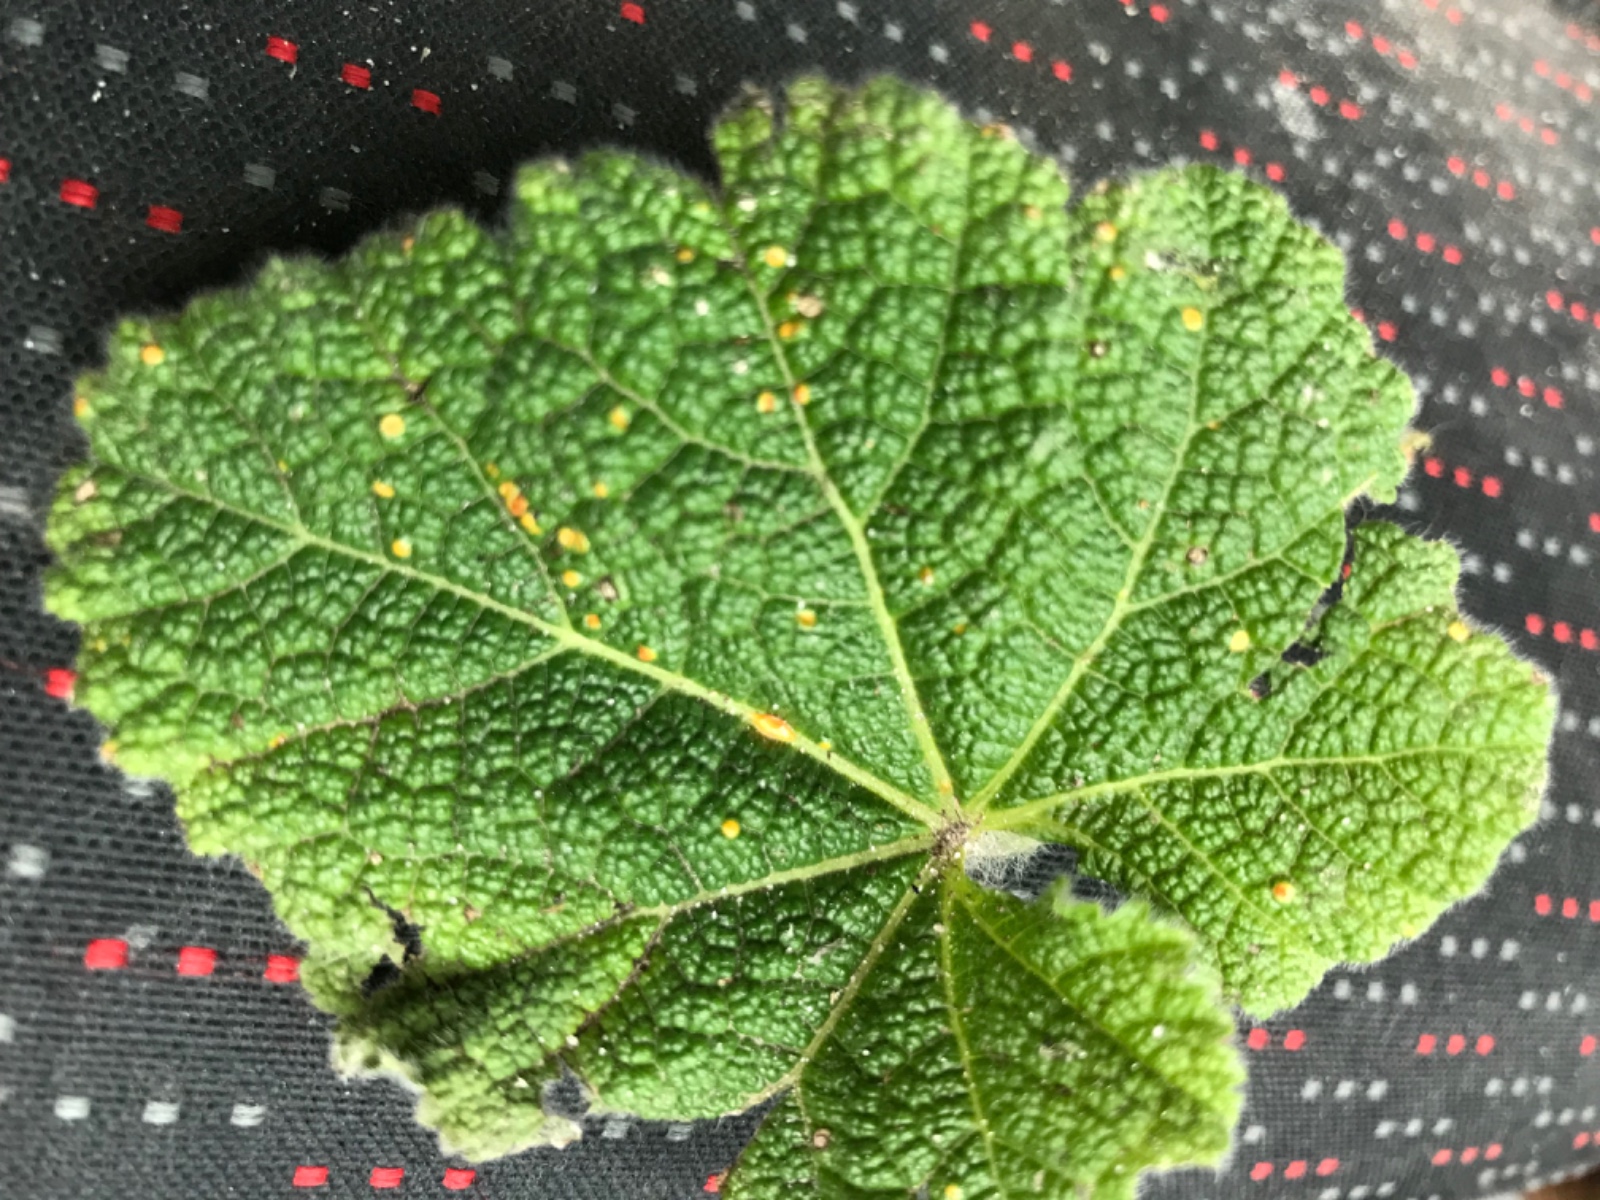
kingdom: Fungi
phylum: Basidiomycota
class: Pucciniomycetes
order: Pucciniales
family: Pucciniaceae
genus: Puccinia
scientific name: Puccinia malvacearum
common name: stokrose-tvecellerust
